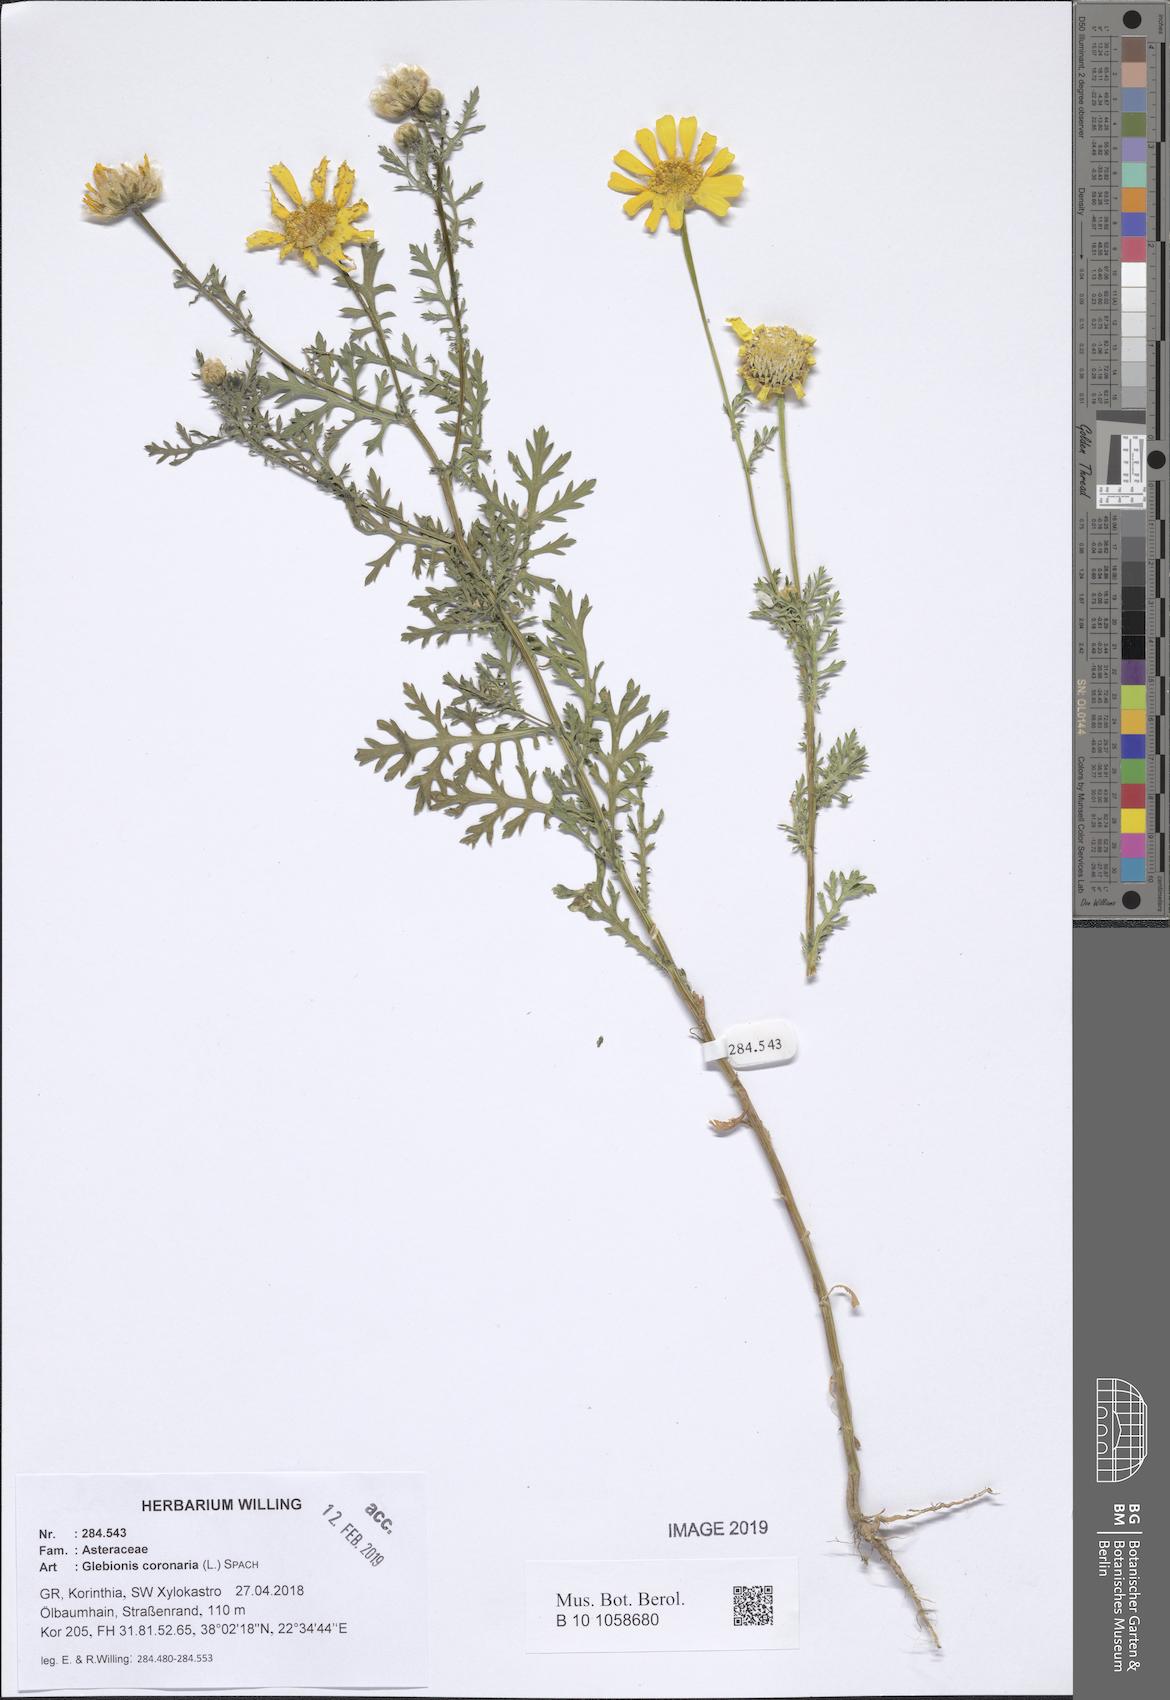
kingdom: Plantae
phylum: Tracheophyta
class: Magnoliopsida
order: Asterales
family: Asteraceae
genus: Glebionis
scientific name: Glebionis coronaria
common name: Crowndaisy
